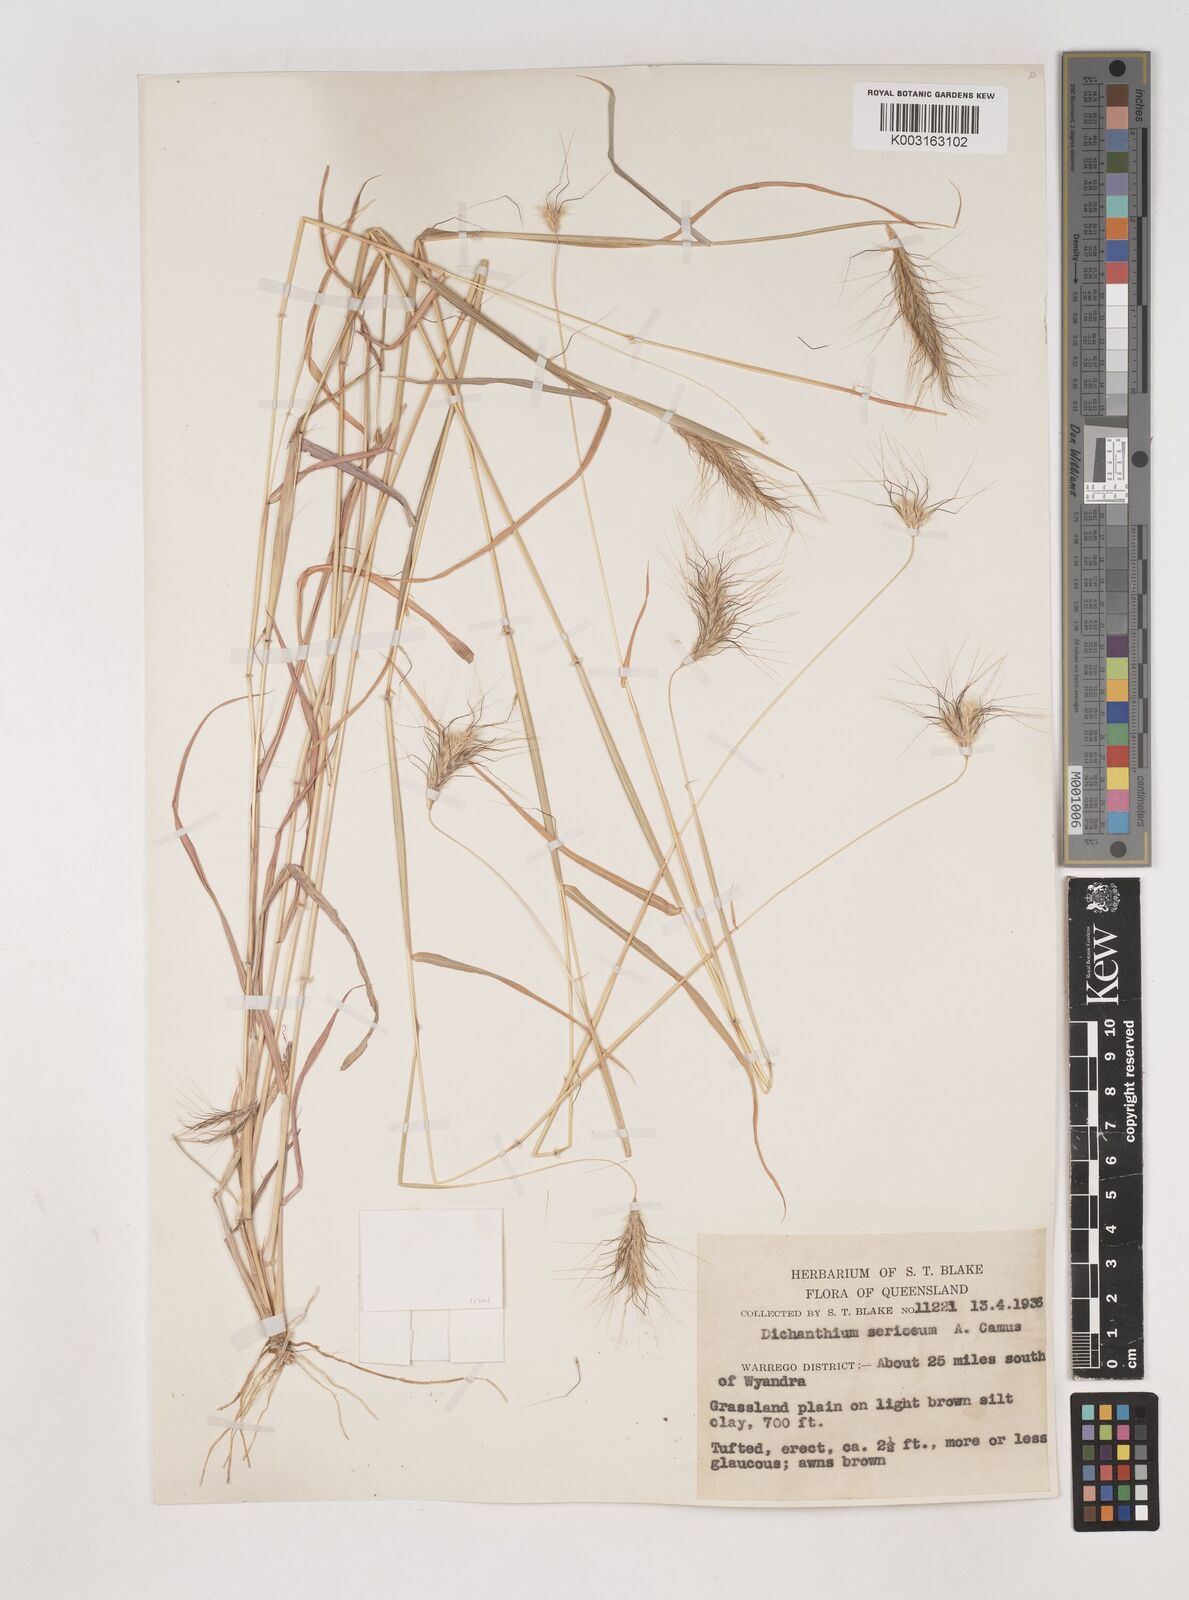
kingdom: Plantae
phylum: Tracheophyta
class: Liliopsida
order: Poales
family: Poaceae
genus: Dichanthium
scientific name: Dichanthium sericeum
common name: Silky bluestem
